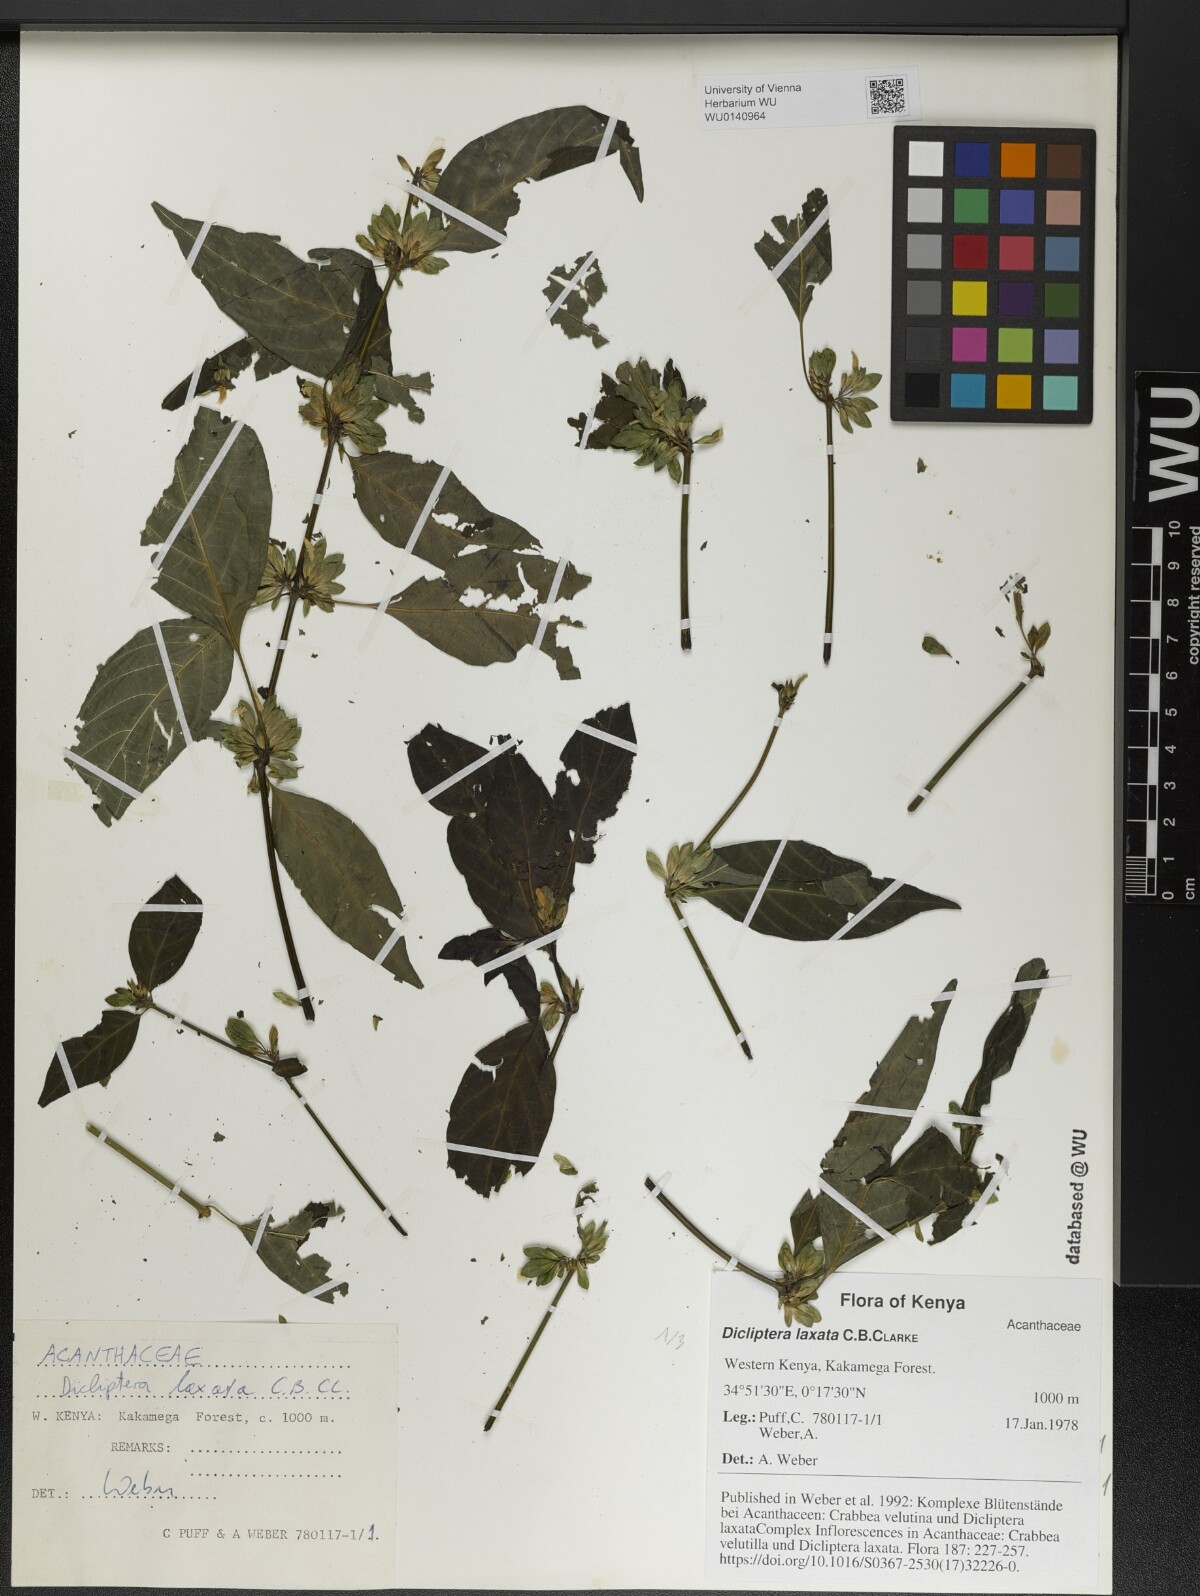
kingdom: Plantae
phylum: Tracheophyta
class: Magnoliopsida
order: Lamiales
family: Acanthaceae
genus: Dicliptera
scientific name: Dicliptera laxata
